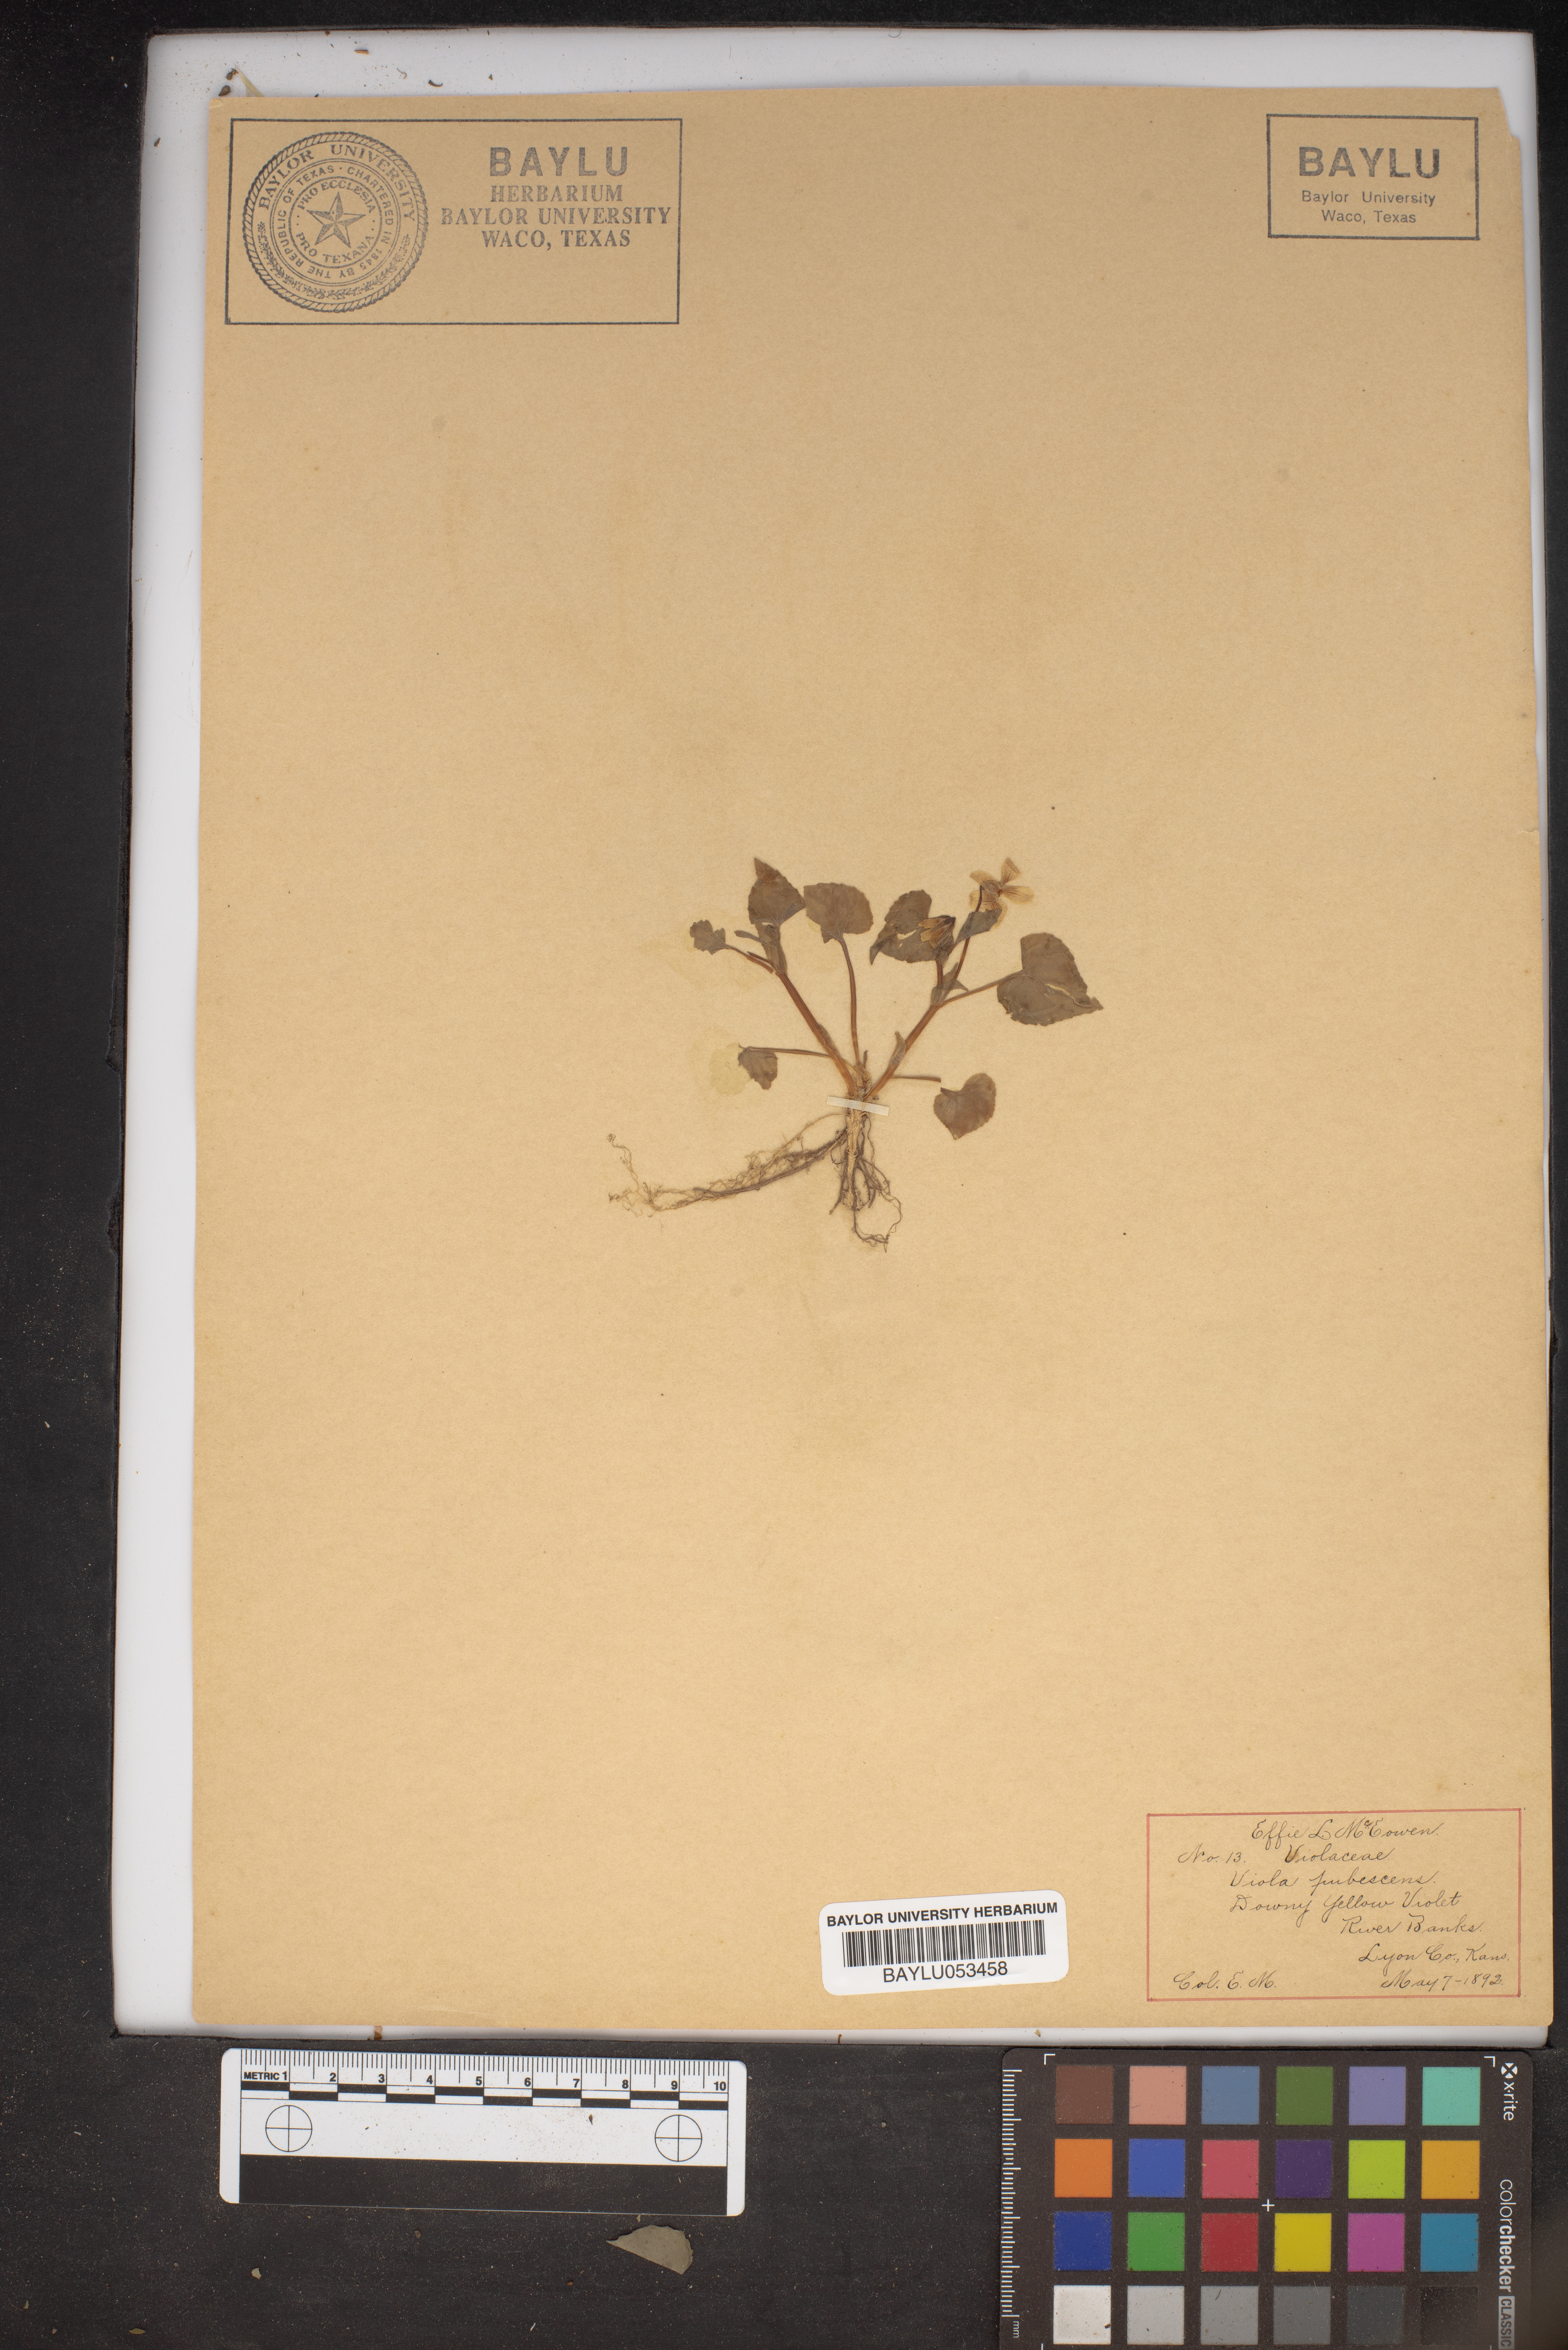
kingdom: Plantae
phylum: Tracheophyta
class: Magnoliopsida
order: Malpighiales
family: Violaceae
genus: Viola
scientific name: Viola pubescens
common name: Yellow forest violet
